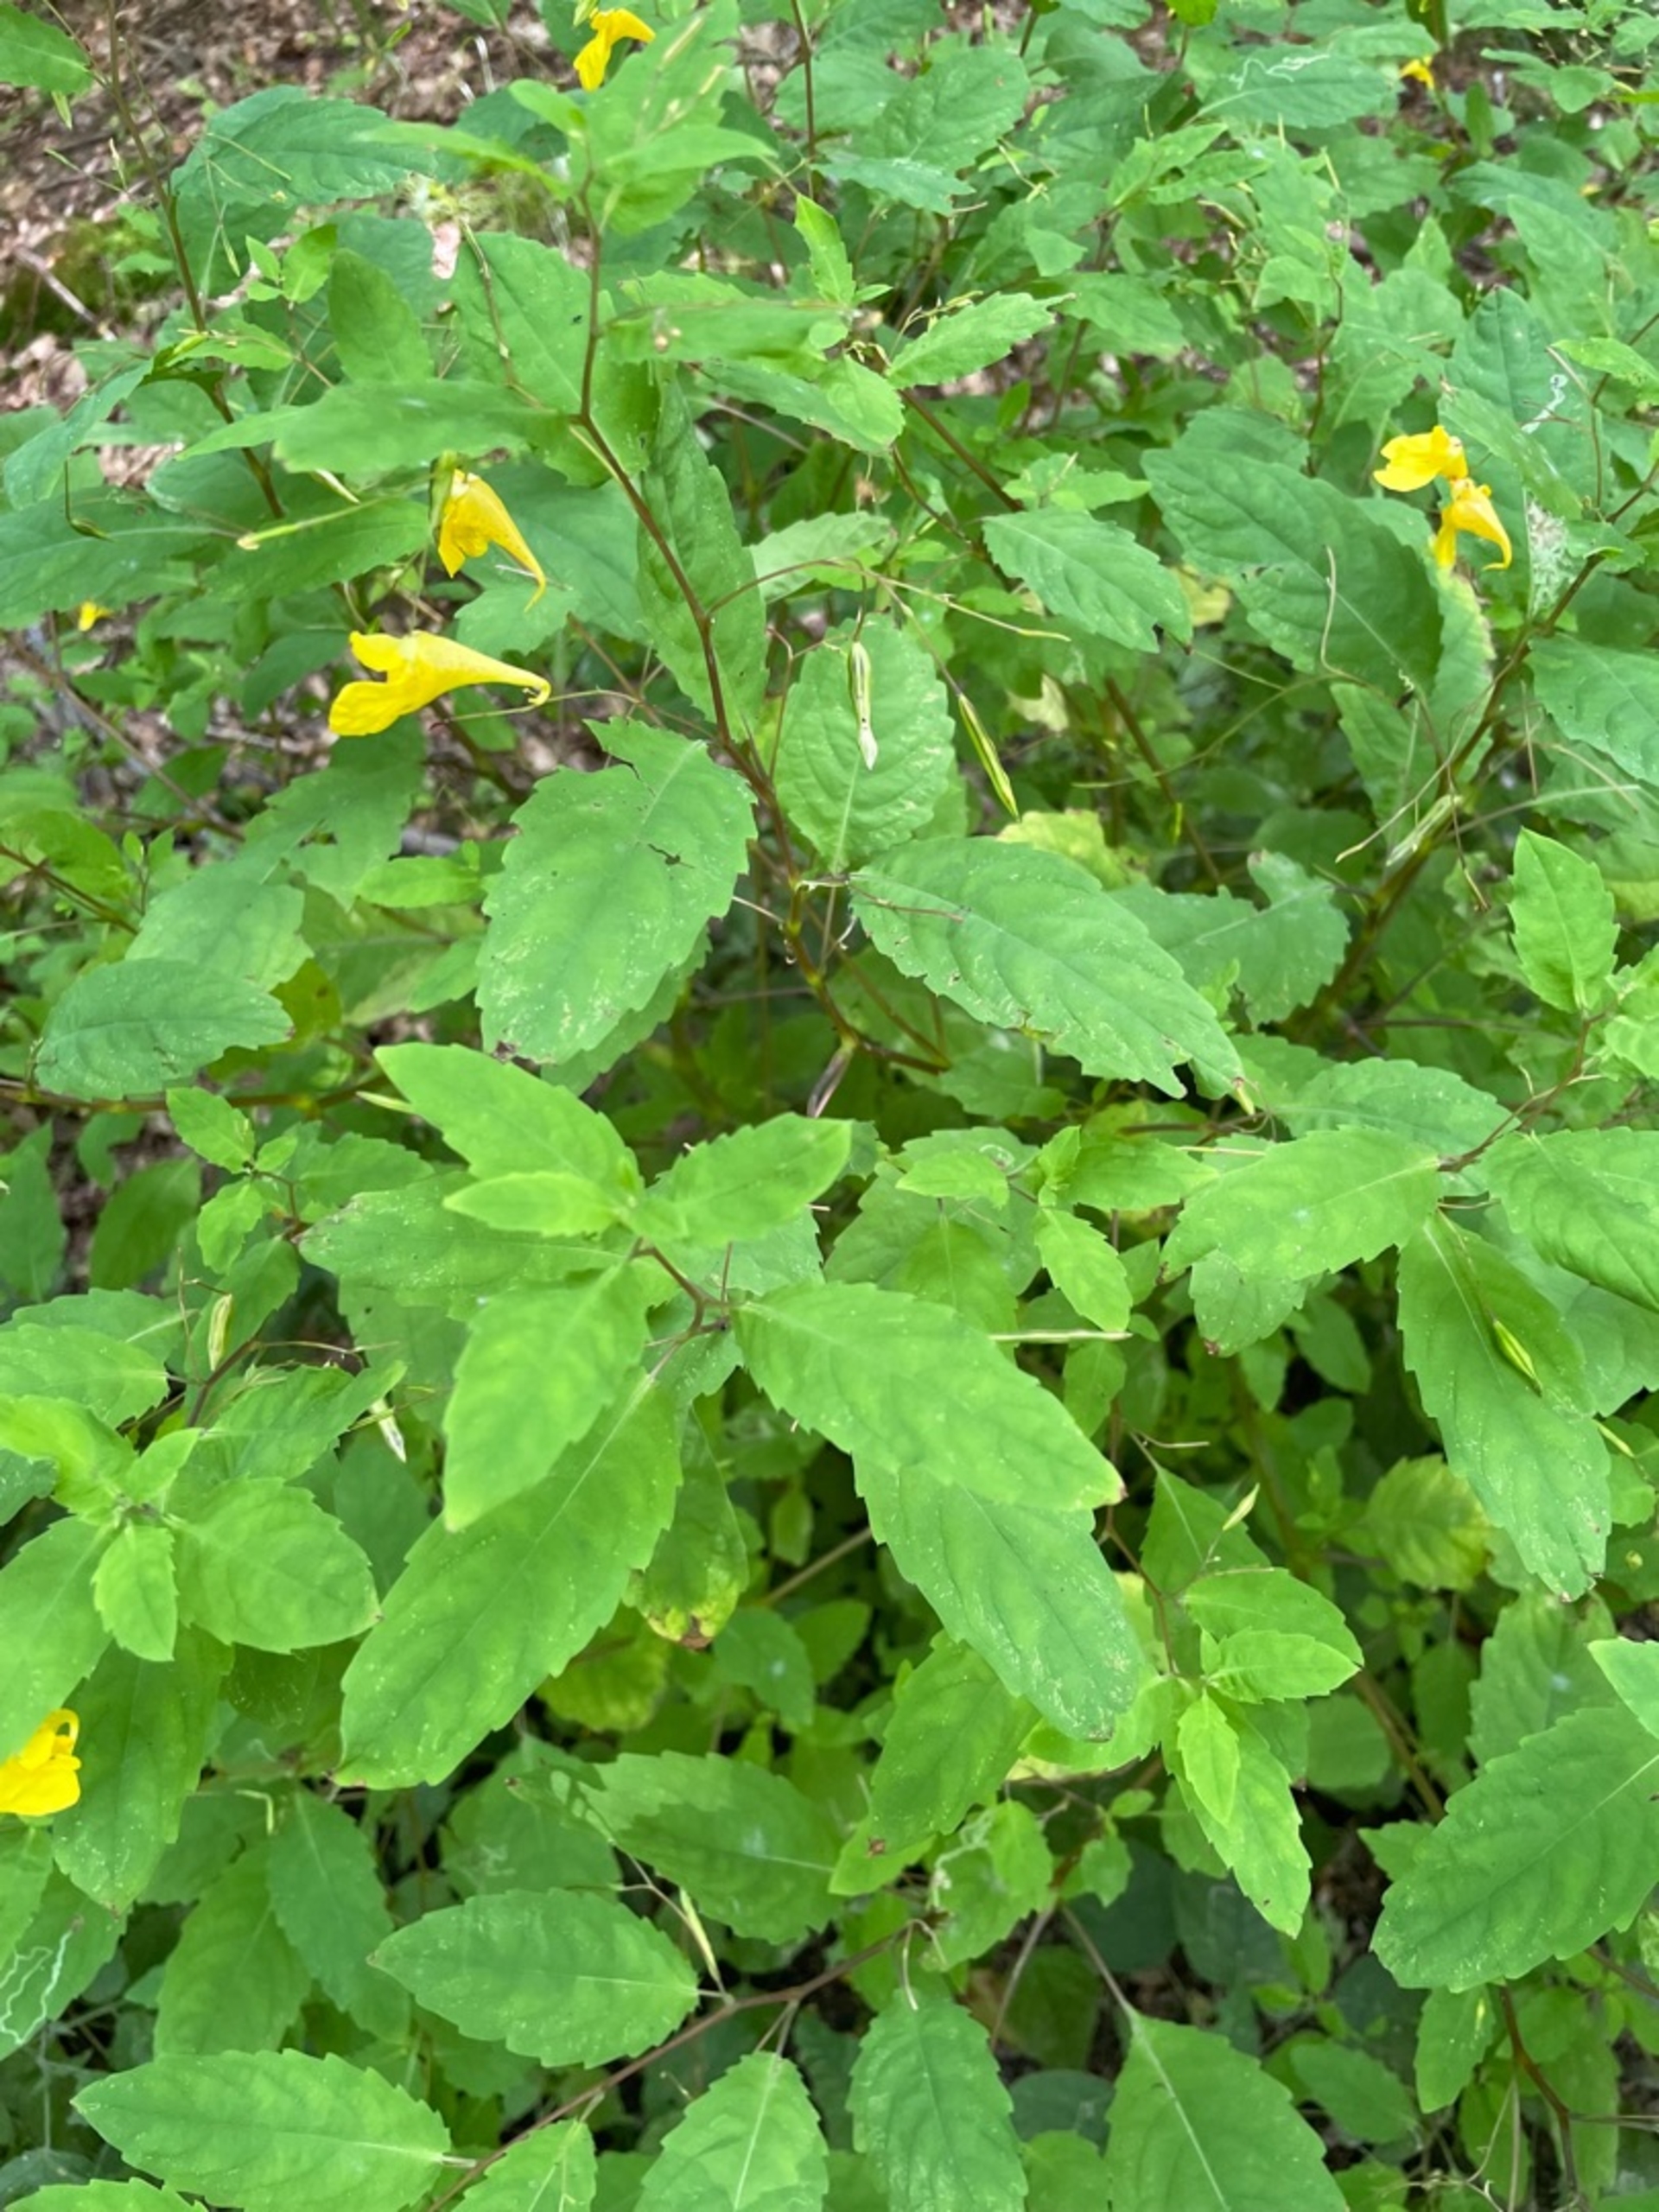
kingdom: Plantae
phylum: Tracheophyta
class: Magnoliopsida
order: Ericales
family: Balsaminaceae
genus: Impatiens
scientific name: Impatiens noli-tangere
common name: Spring-balsamin
